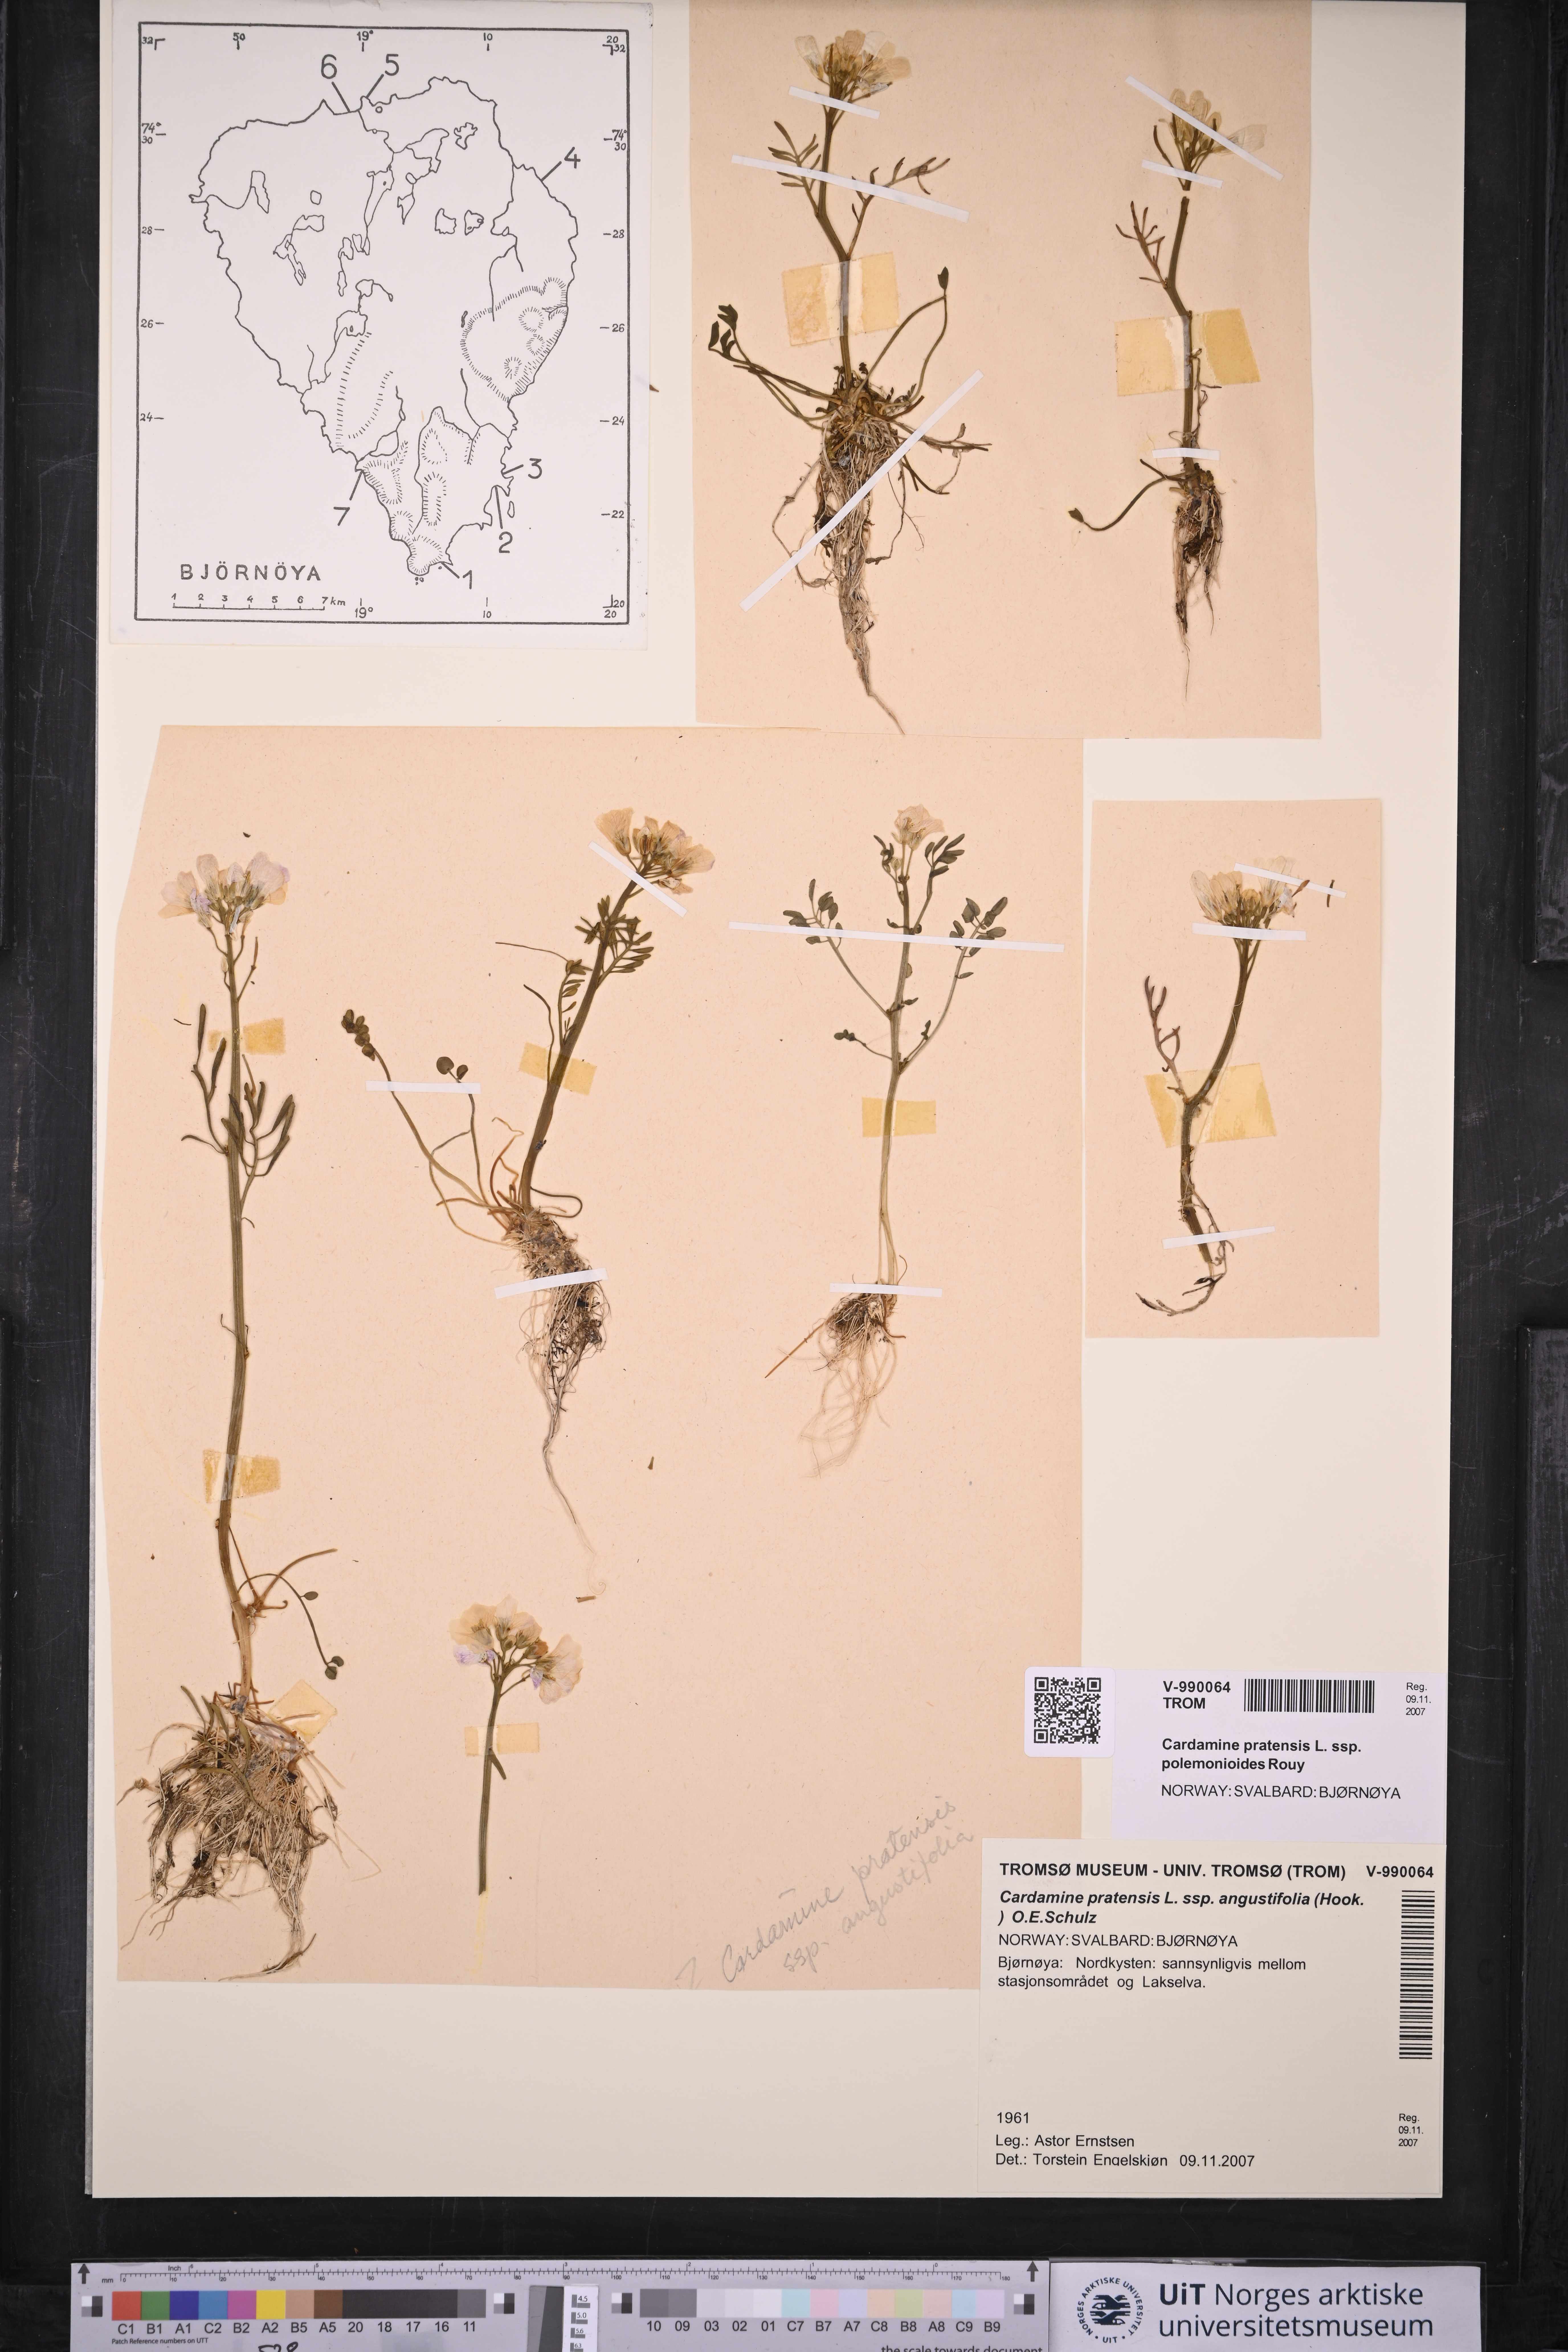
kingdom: Plantae
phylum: Tracheophyta
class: Magnoliopsida
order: Brassicales
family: Brassicaceae
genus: Cardamine
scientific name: Cardamine nymanii
